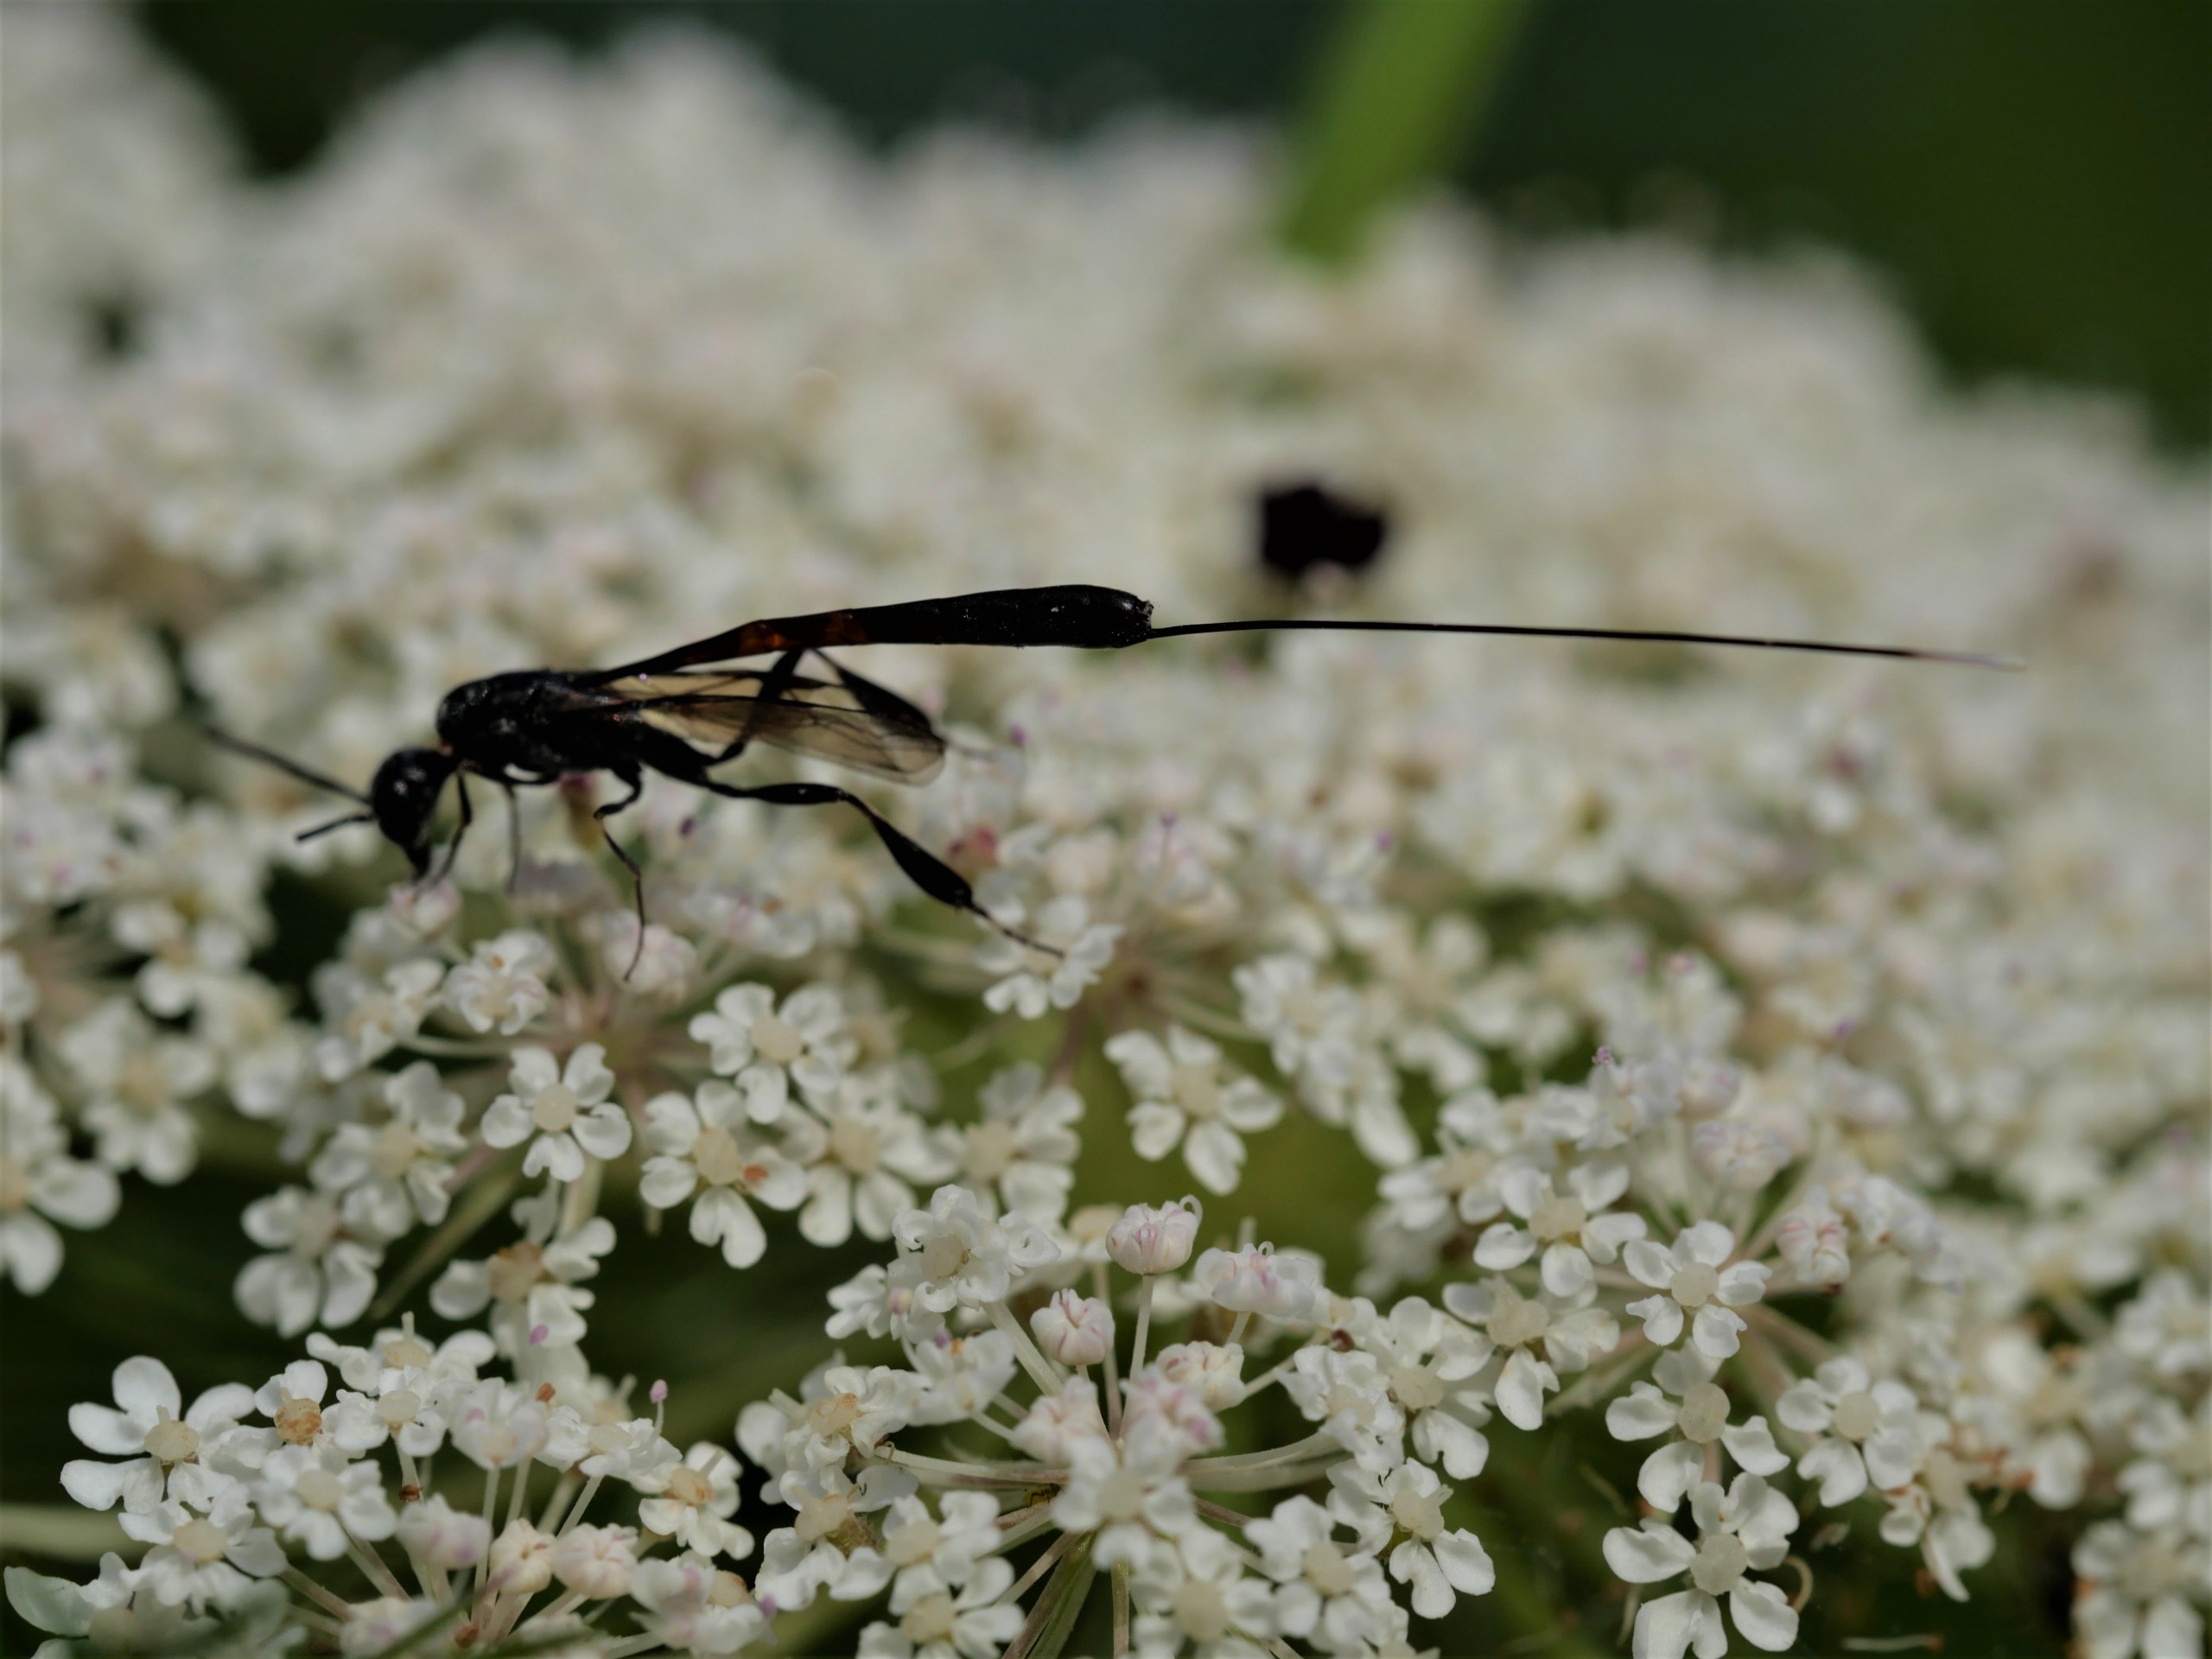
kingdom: Animalia
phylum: Arthropoda
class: Insecta
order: Hymenoptera
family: Gasteruptiidae
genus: Gasteruption
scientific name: Gasteruption
